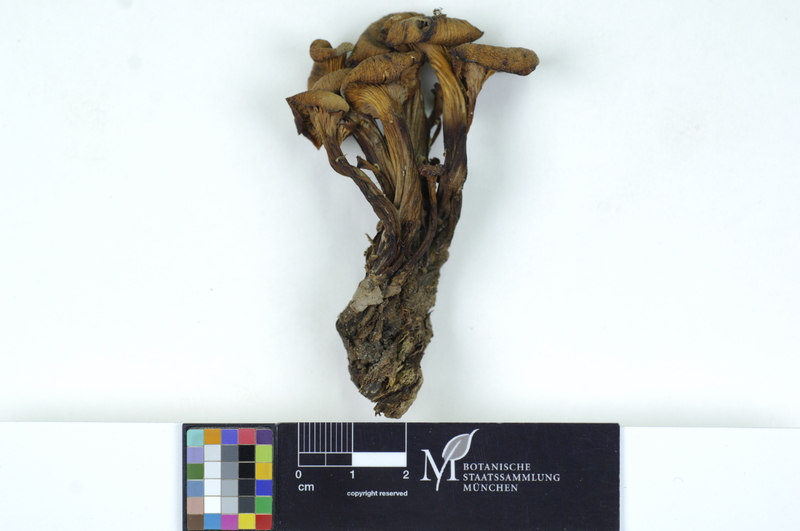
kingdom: Fungi
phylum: Basidiomycota
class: Agaricomycetes
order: Russulales
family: Auriscalpiaceae
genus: Lentinellus
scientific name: Lentinellus cochleatus
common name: Aniseed cockleshell
